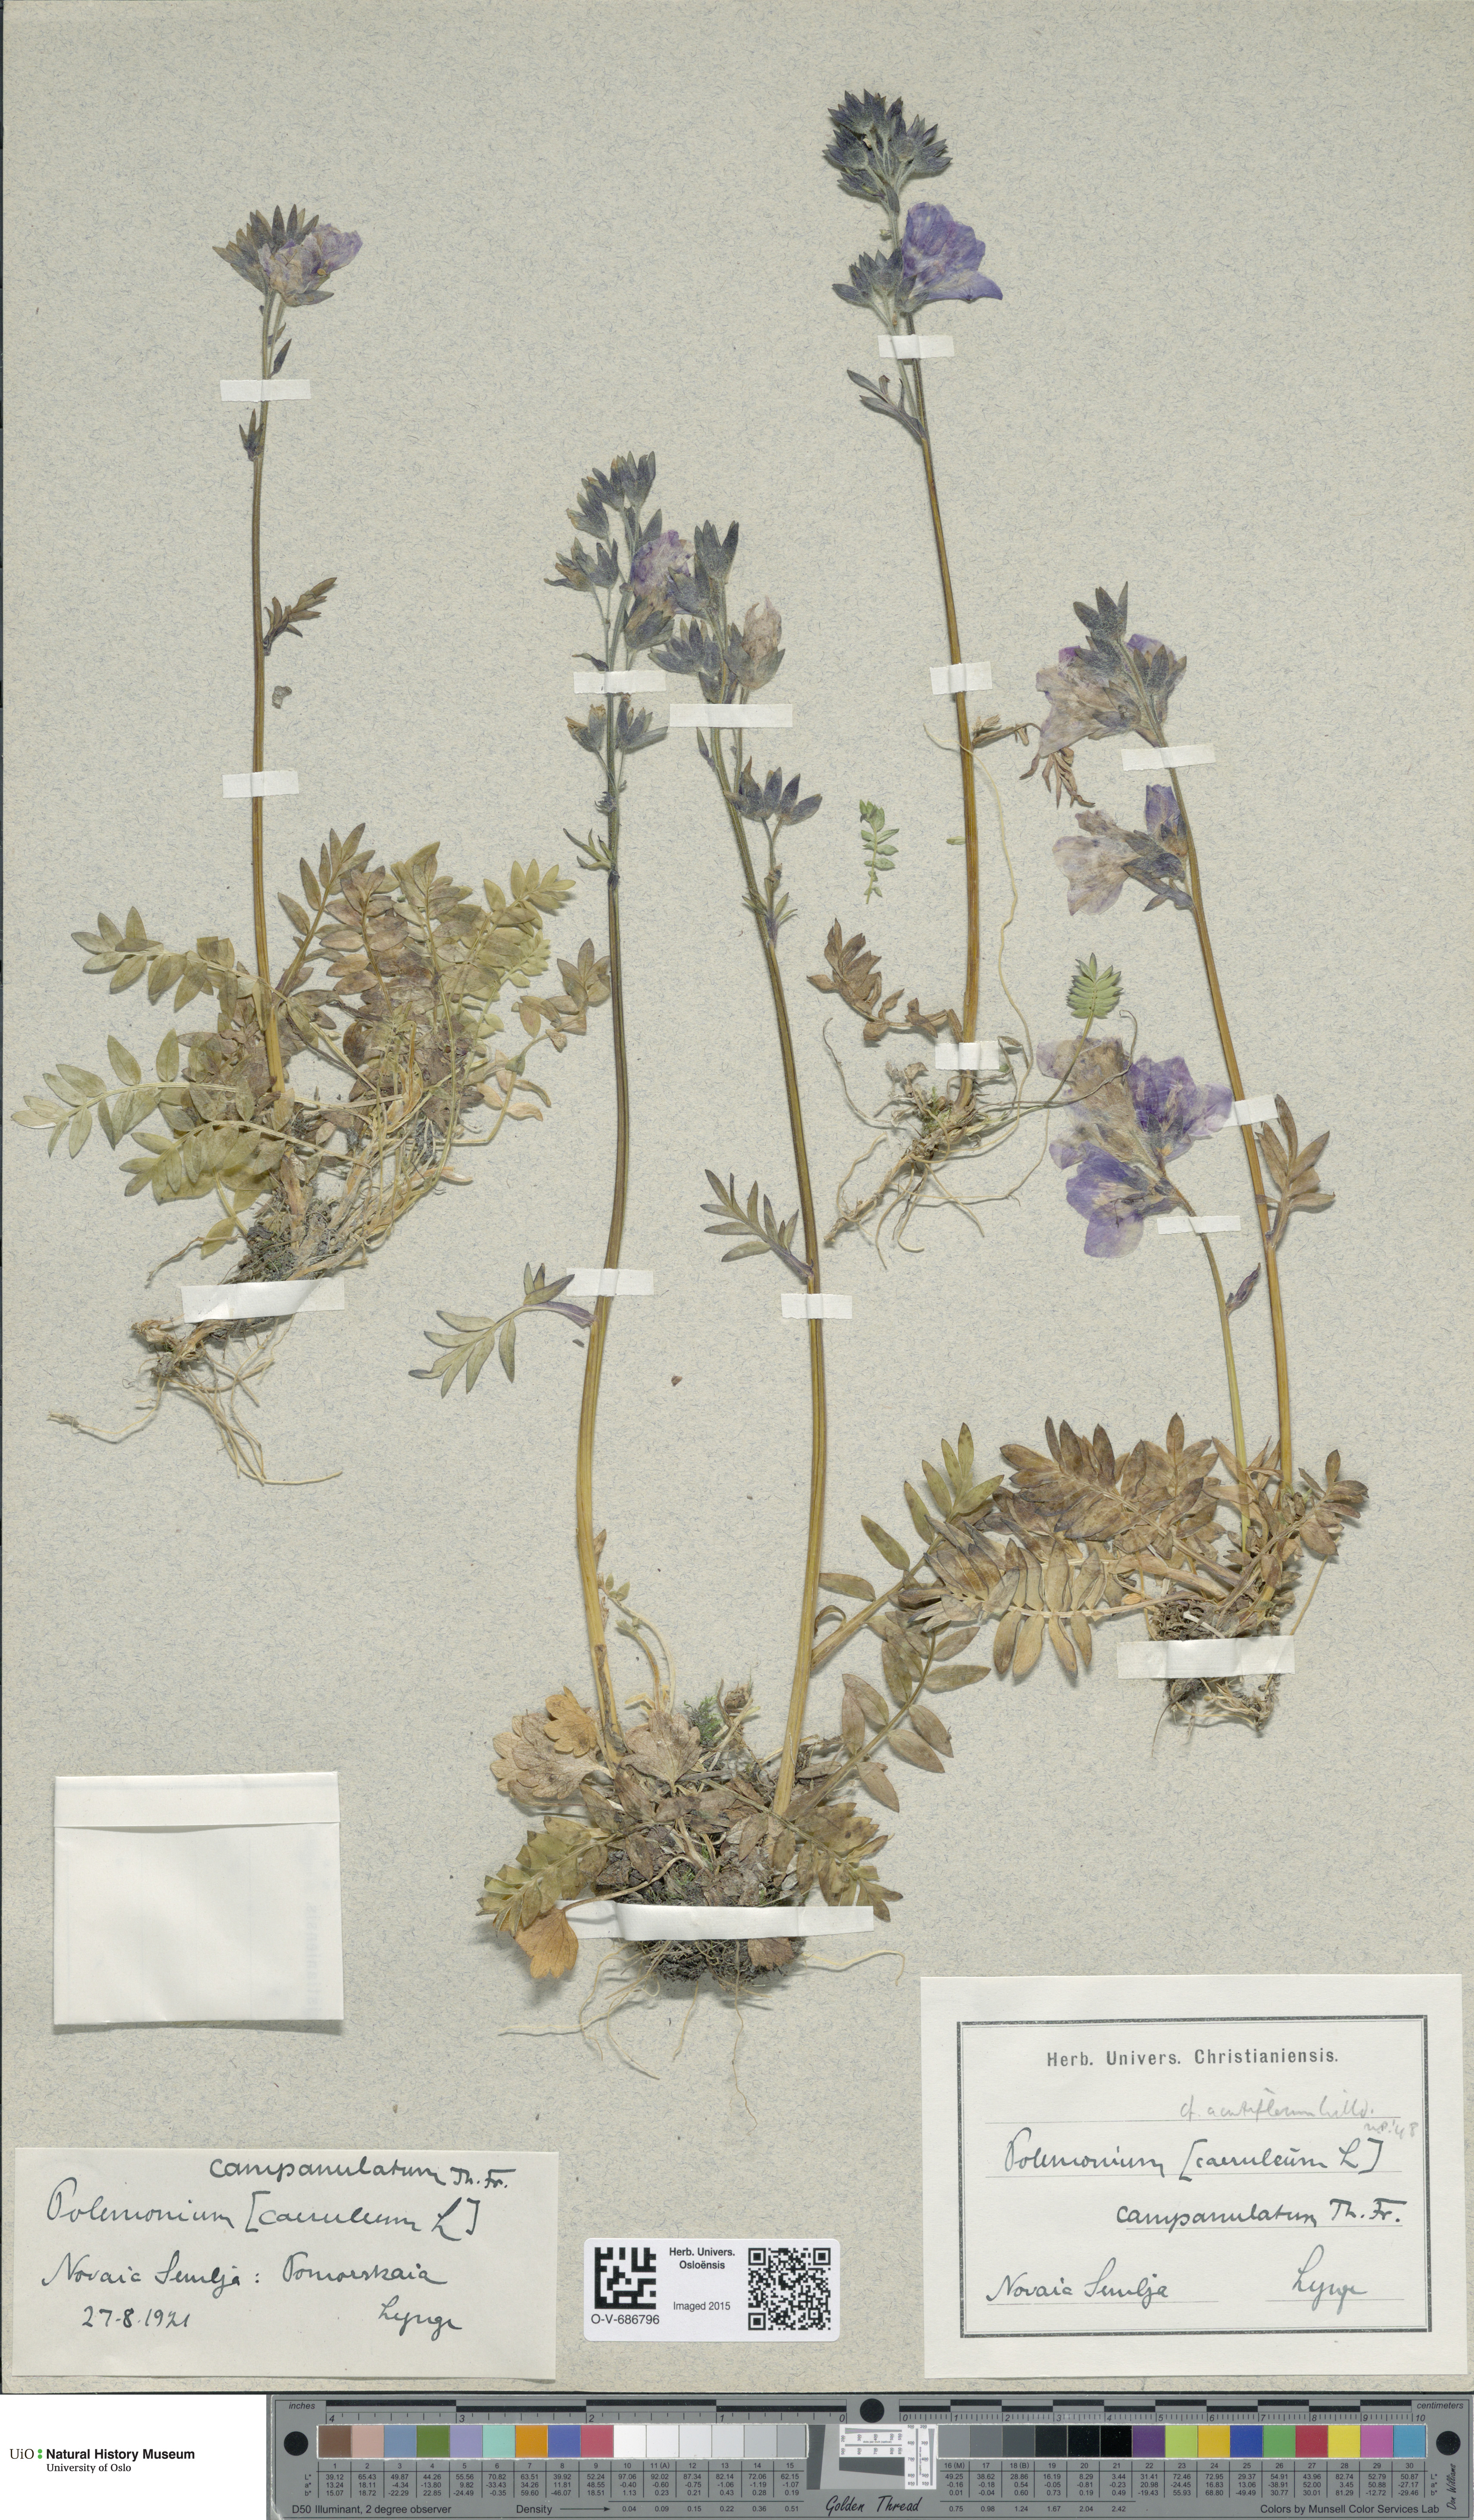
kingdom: Plantae
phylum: Tracheophyta
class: Magnoliopsida
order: Ericales
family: Polemoniaceae
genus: Polemonium
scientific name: Polemonium villosum
